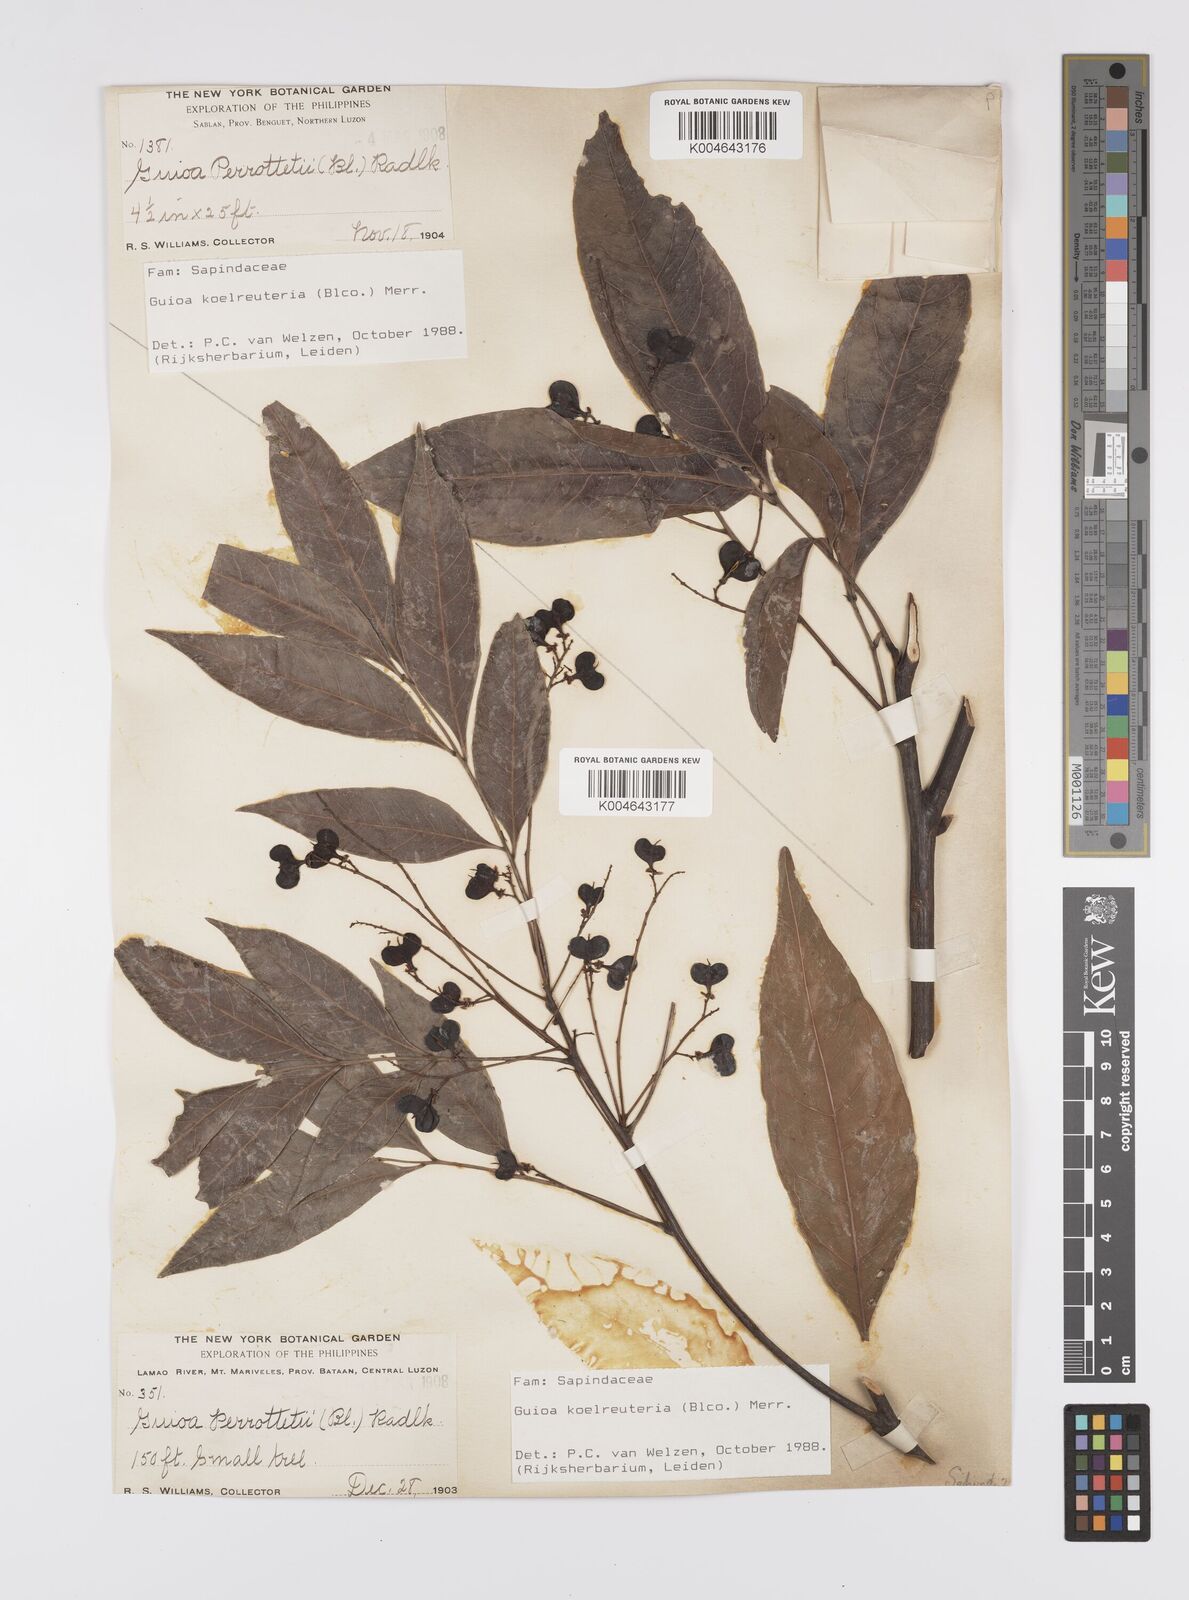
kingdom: Plantae
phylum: Tracheophyta
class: Magnoliopsida
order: Sapindales
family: Sapindaceae
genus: Guioa
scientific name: Guioa koelreuteria
